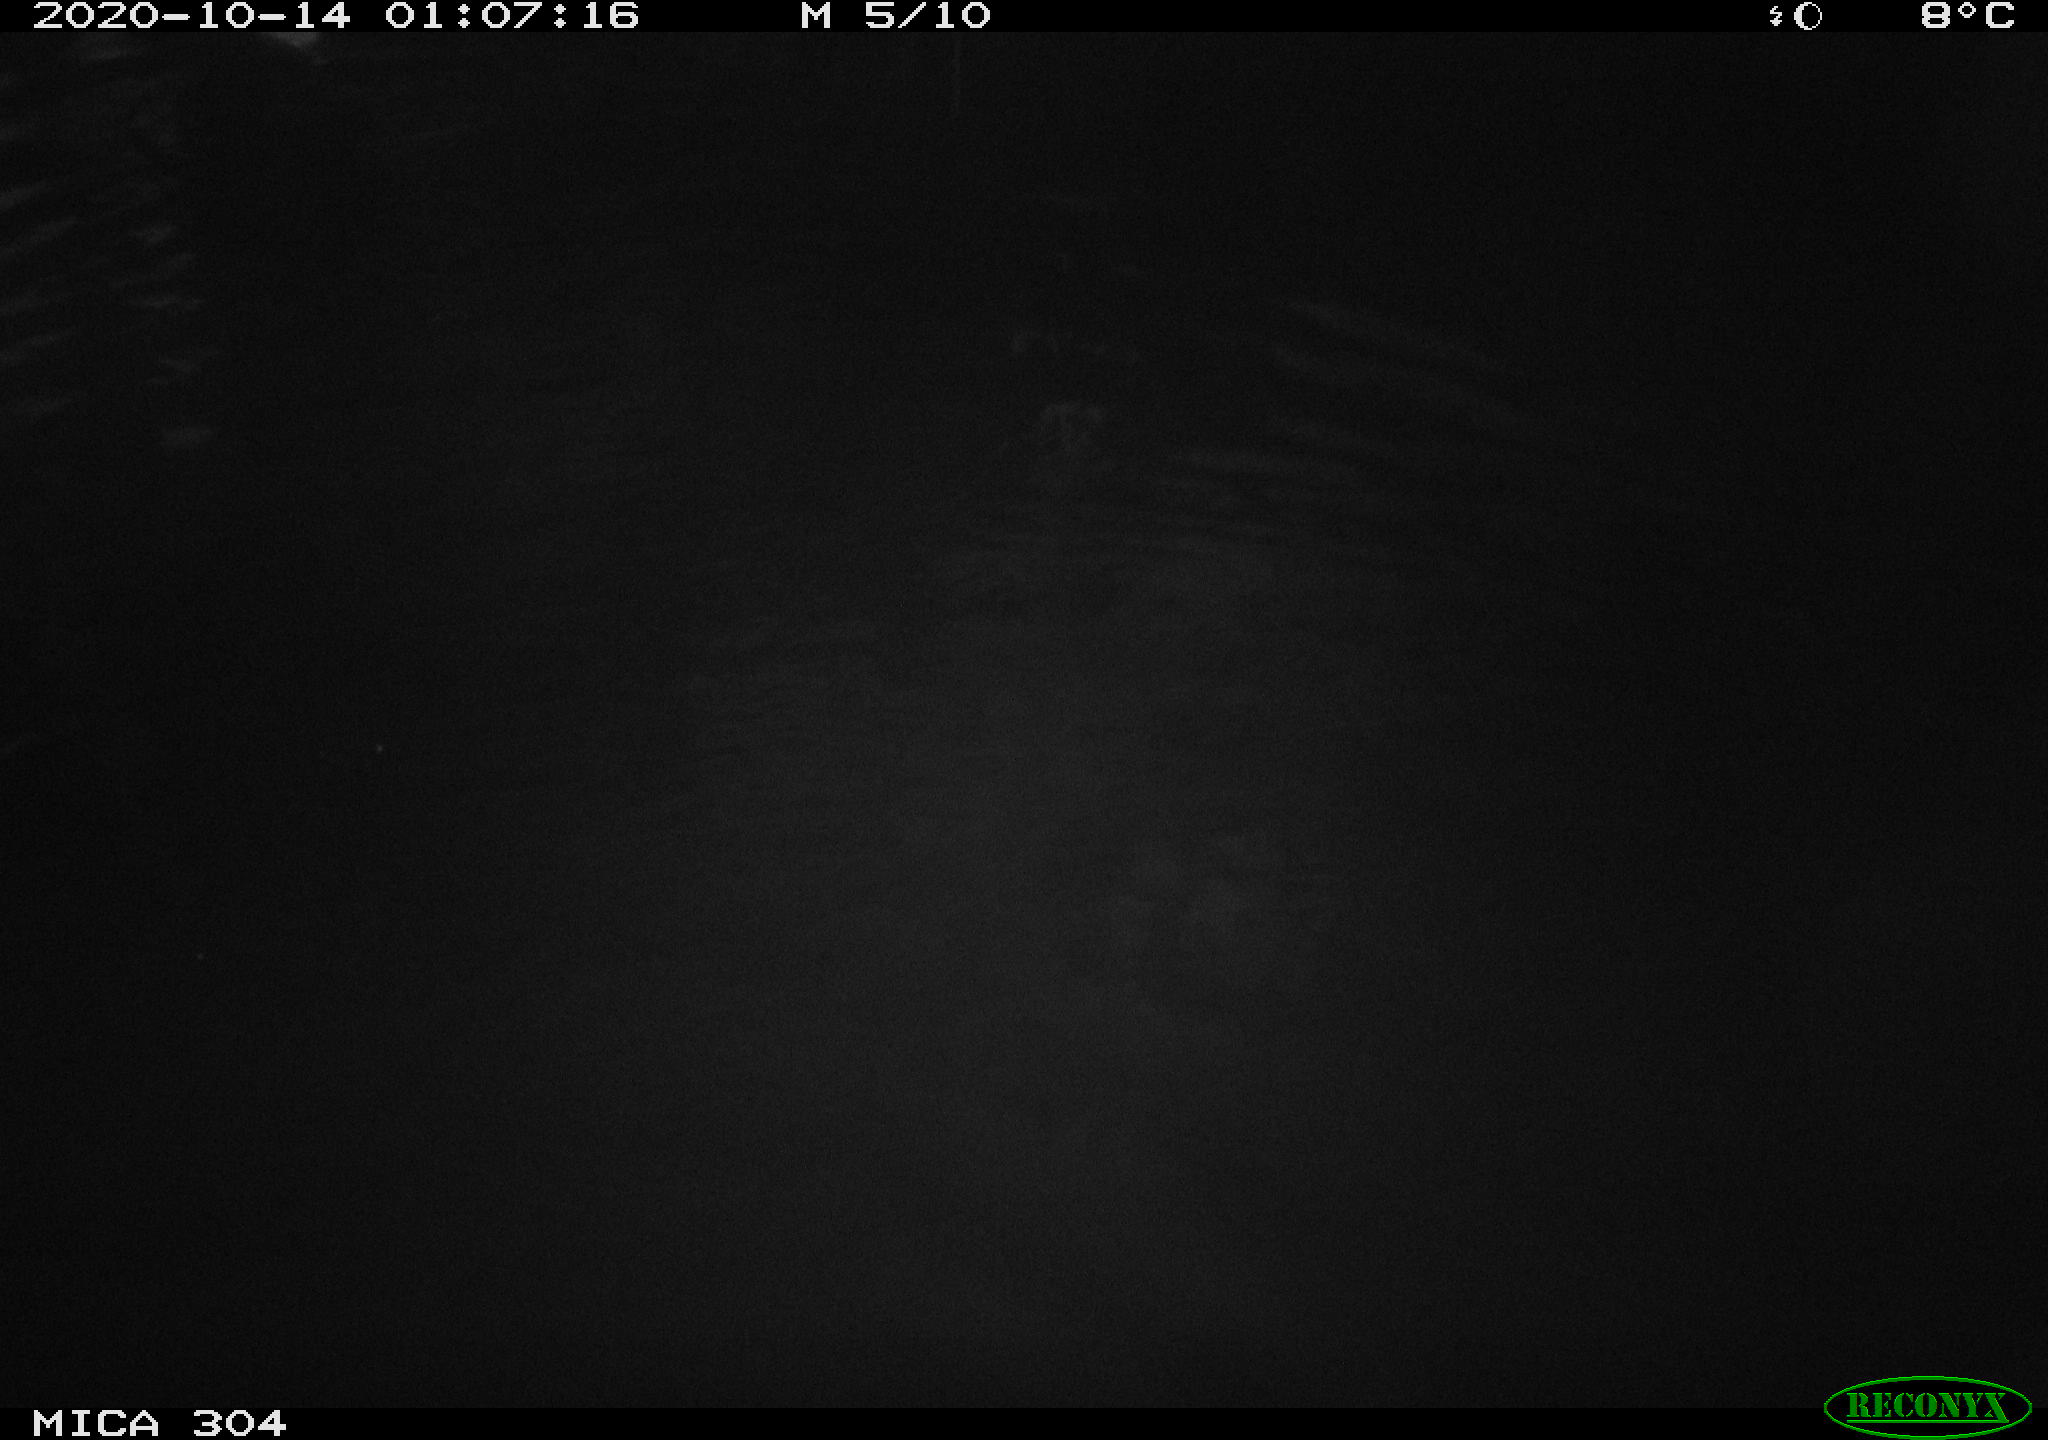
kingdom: Animalia
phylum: Chordata
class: Mammalia
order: Rodentia
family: Muridae
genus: Rattus
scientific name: Rattus norvegicus
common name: Brown rat
